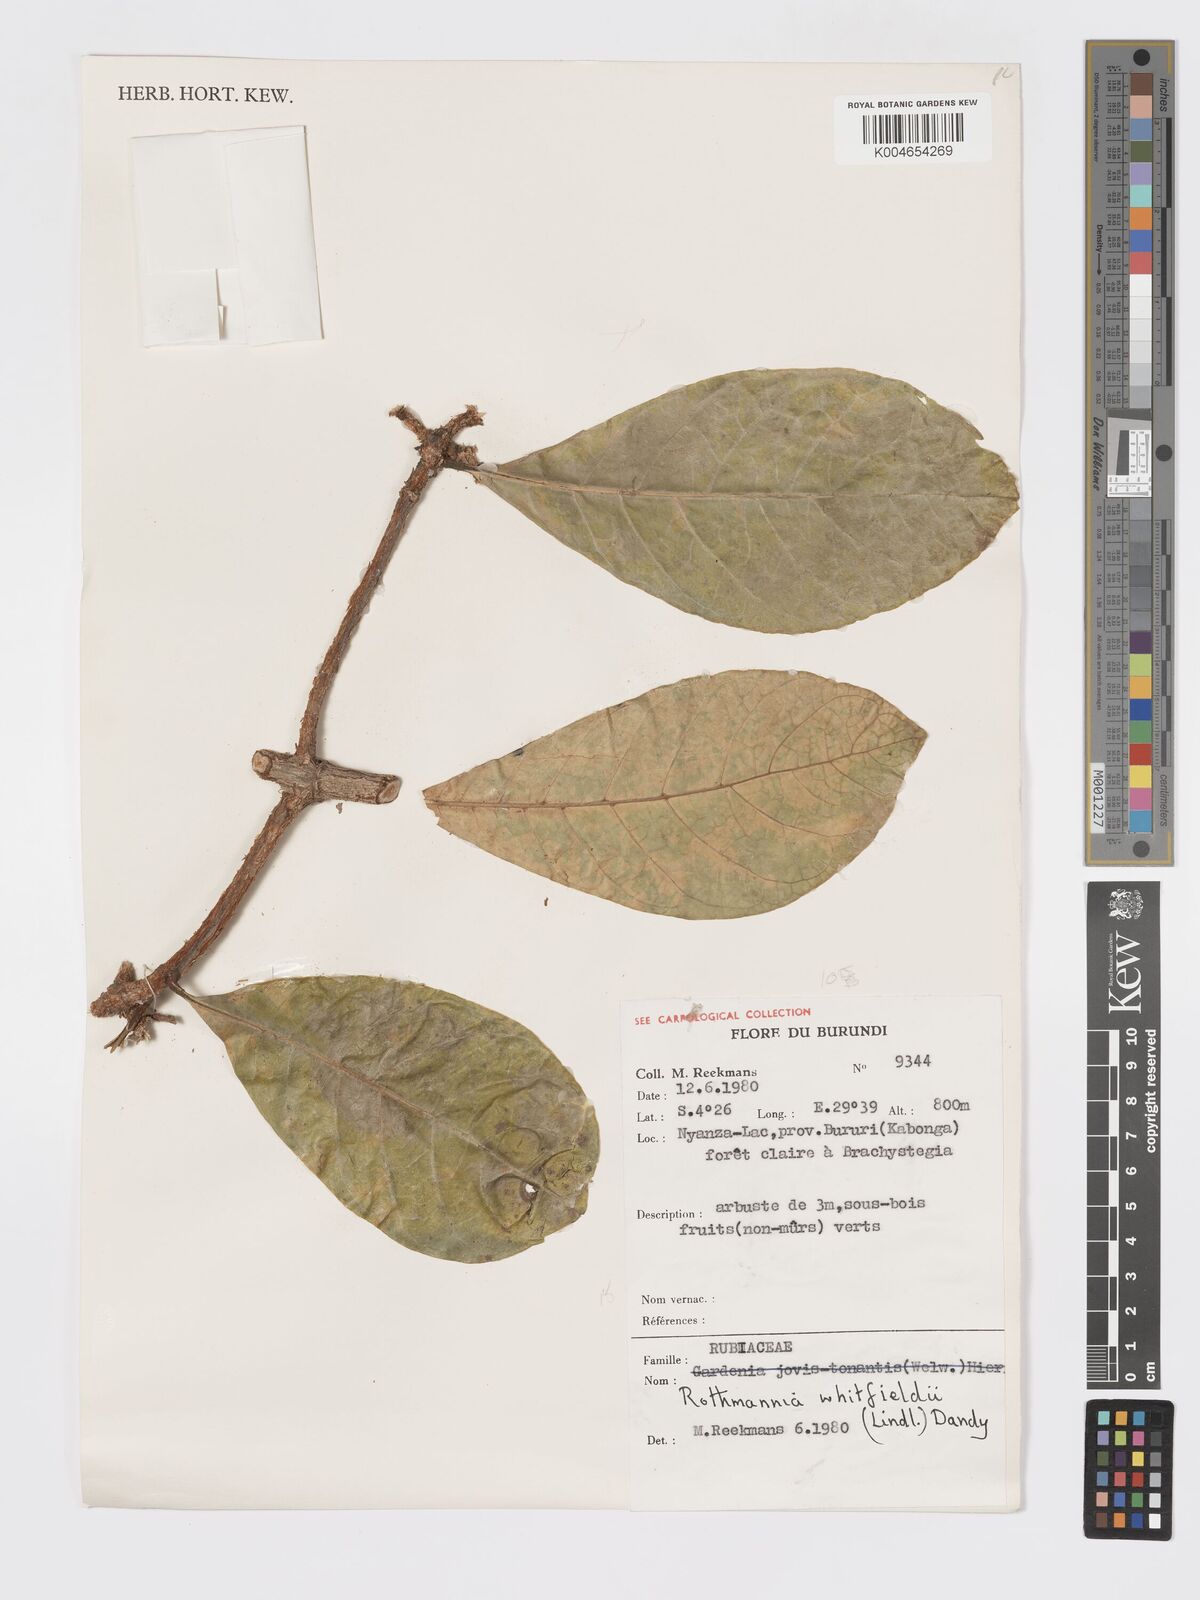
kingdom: Plantae
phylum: Tracheophyta
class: Magnoliopsida
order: Gentianales
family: Rubiaceae
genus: Rothmannia
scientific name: Rothmannia whitfieldii
